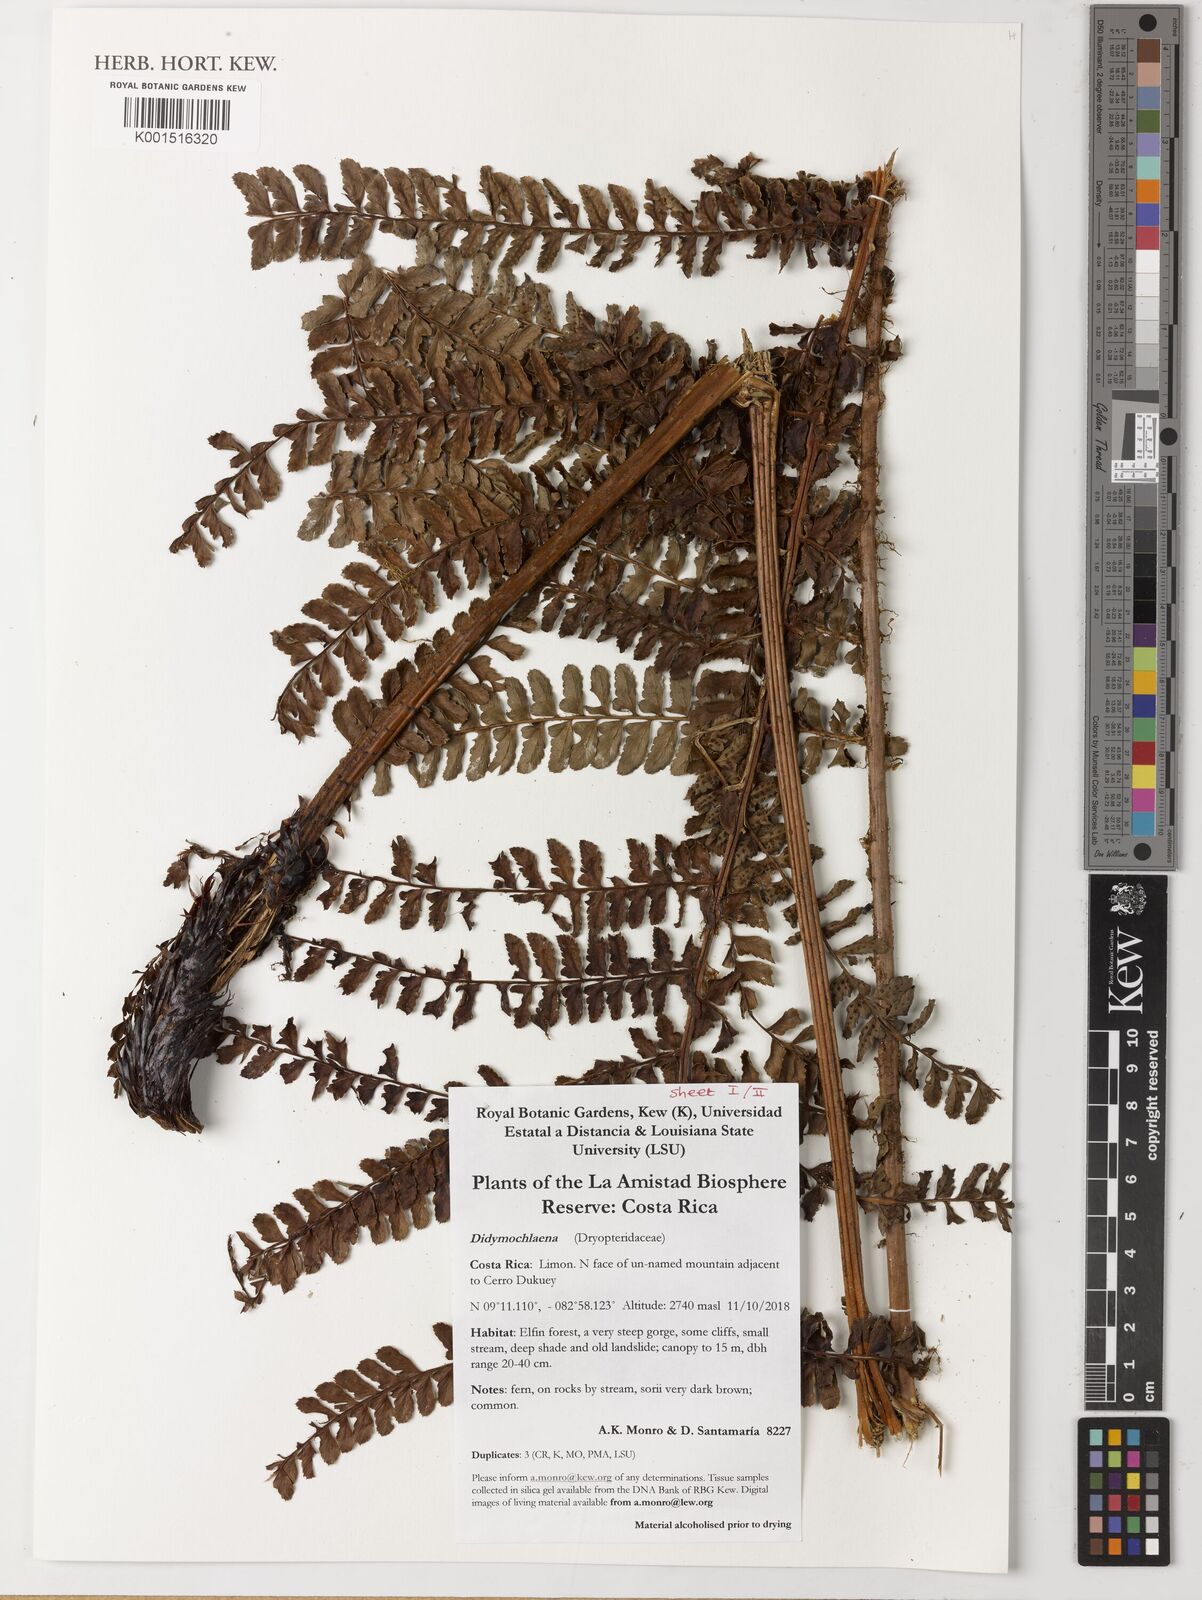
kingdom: Plantae
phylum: Tracheophyta
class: Polypodiopsida
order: Polypodiales
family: Didymochlaenaceae
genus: Didymochlaena
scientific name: Didymochlaena
